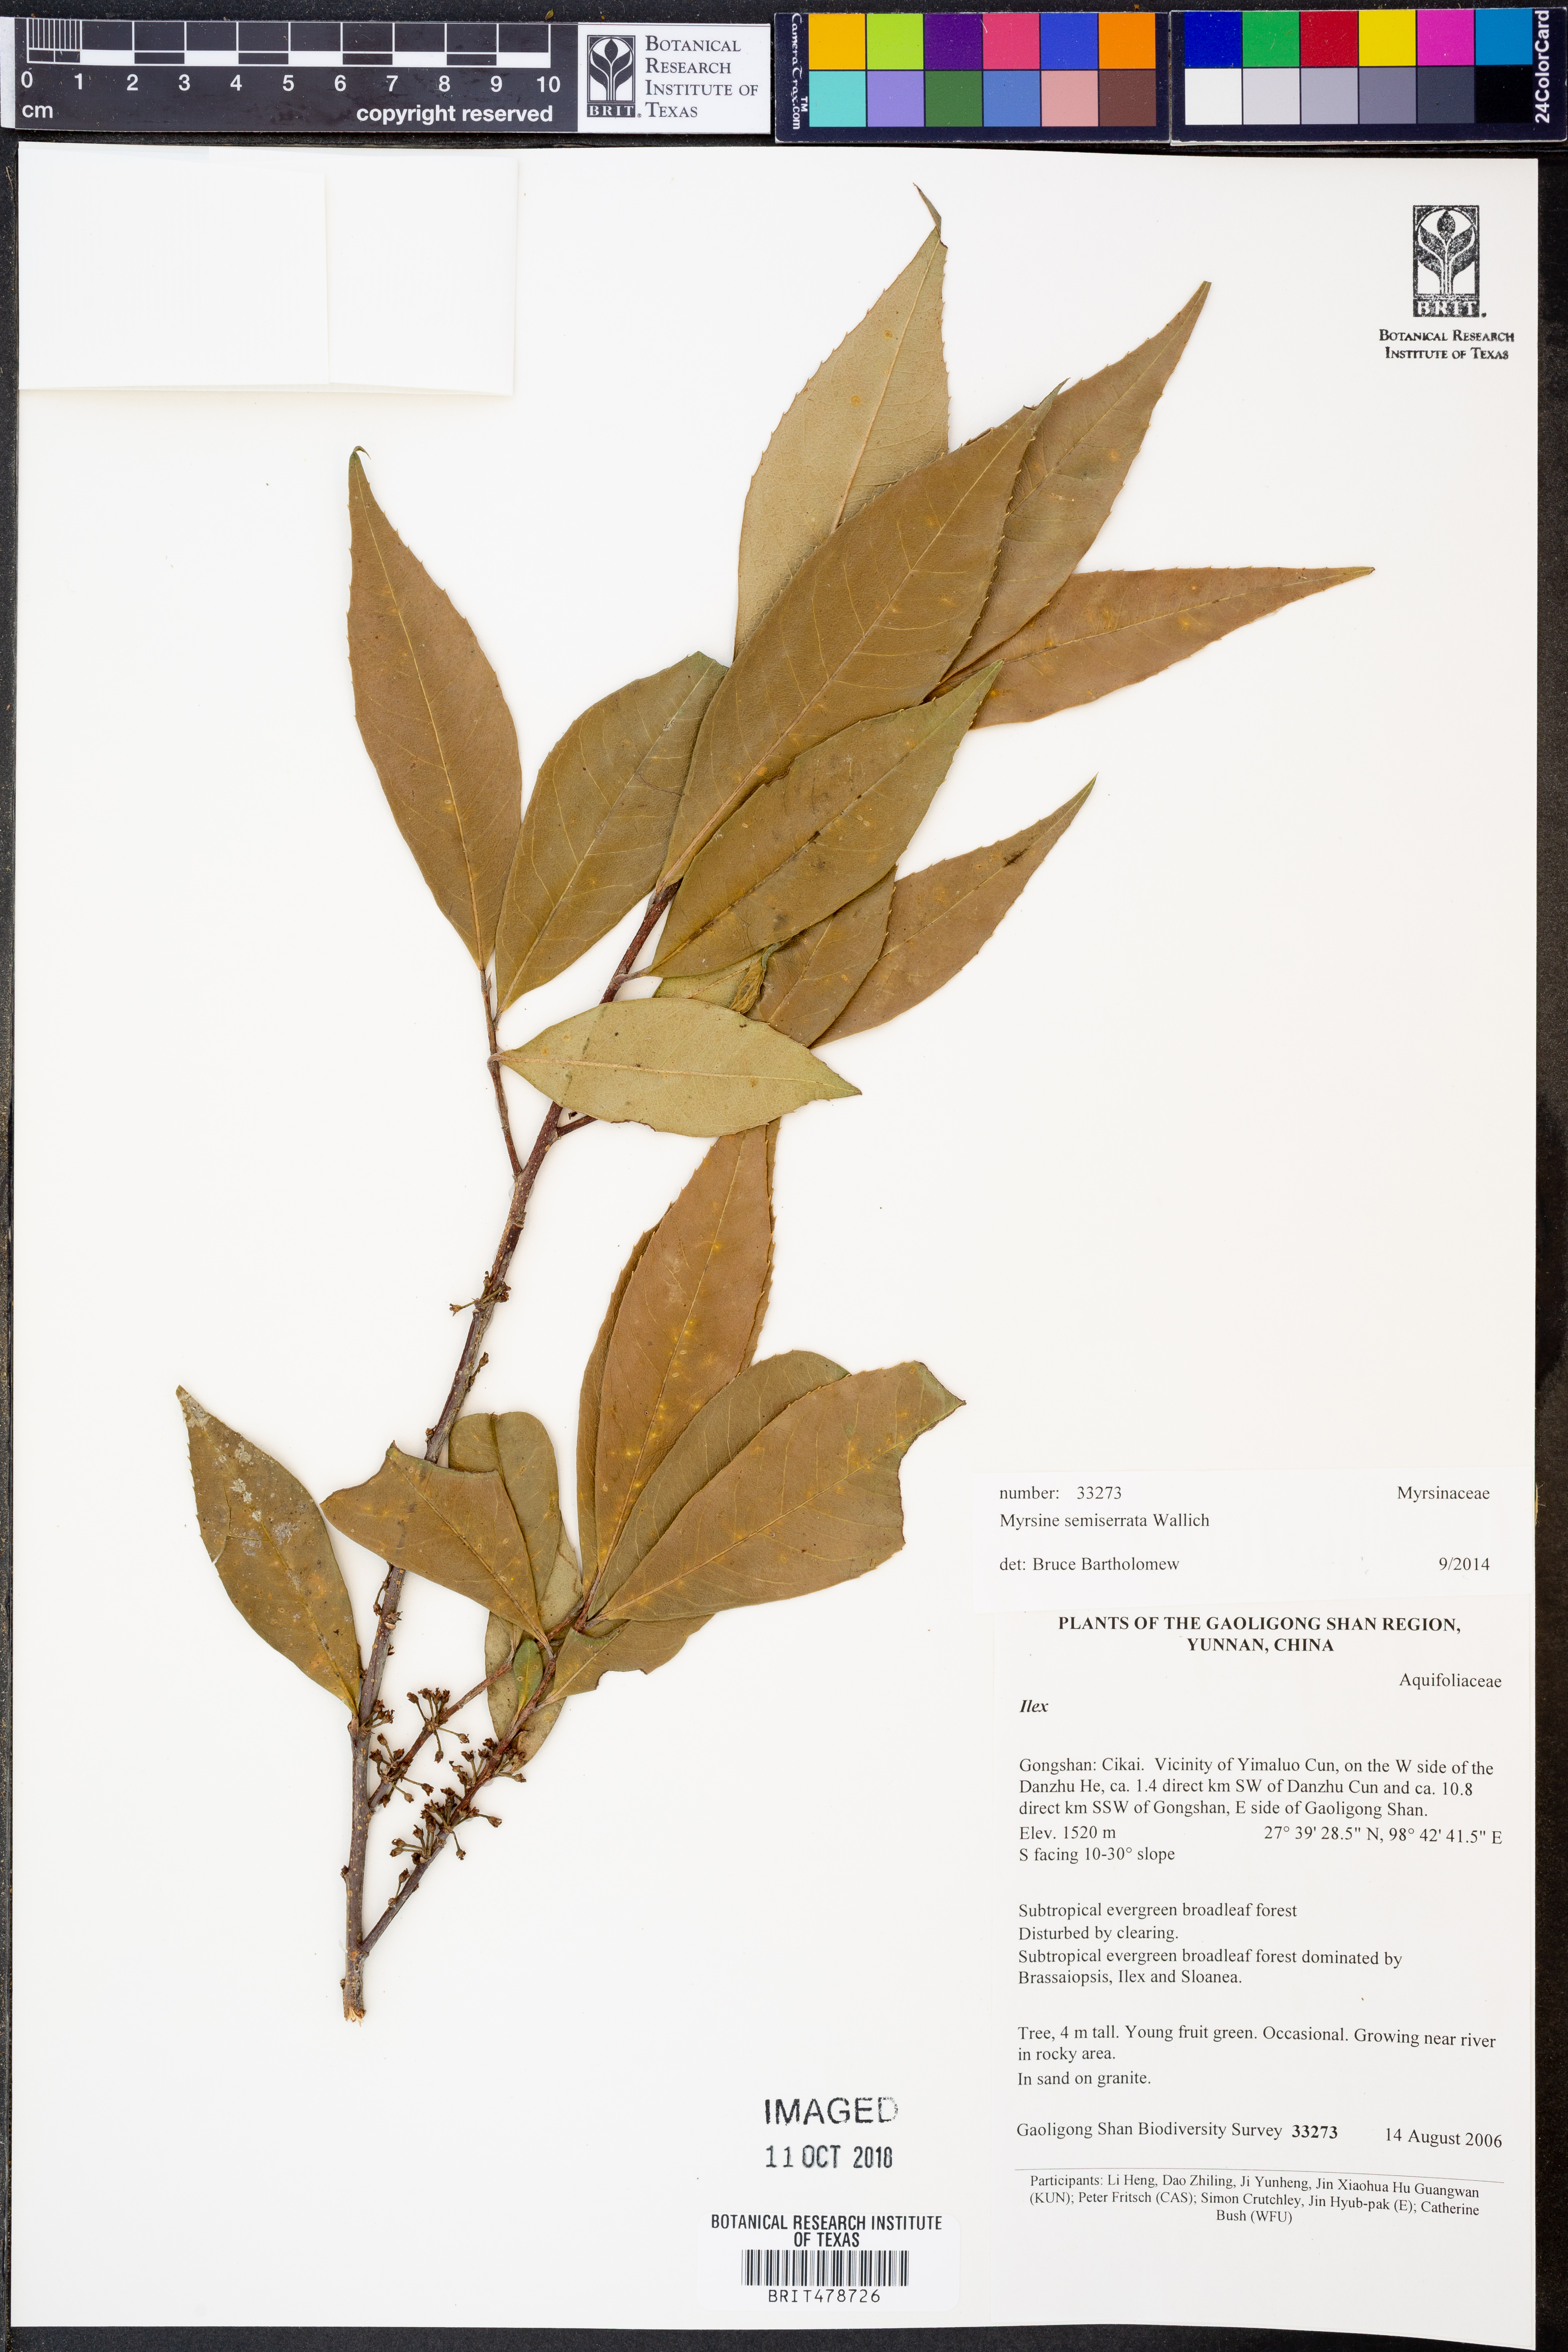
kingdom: Plantae
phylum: Tracheophyta
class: Magnoliopsida
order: Ericales
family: Primulaceae
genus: Myrsine
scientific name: Myrsine semiserrata
